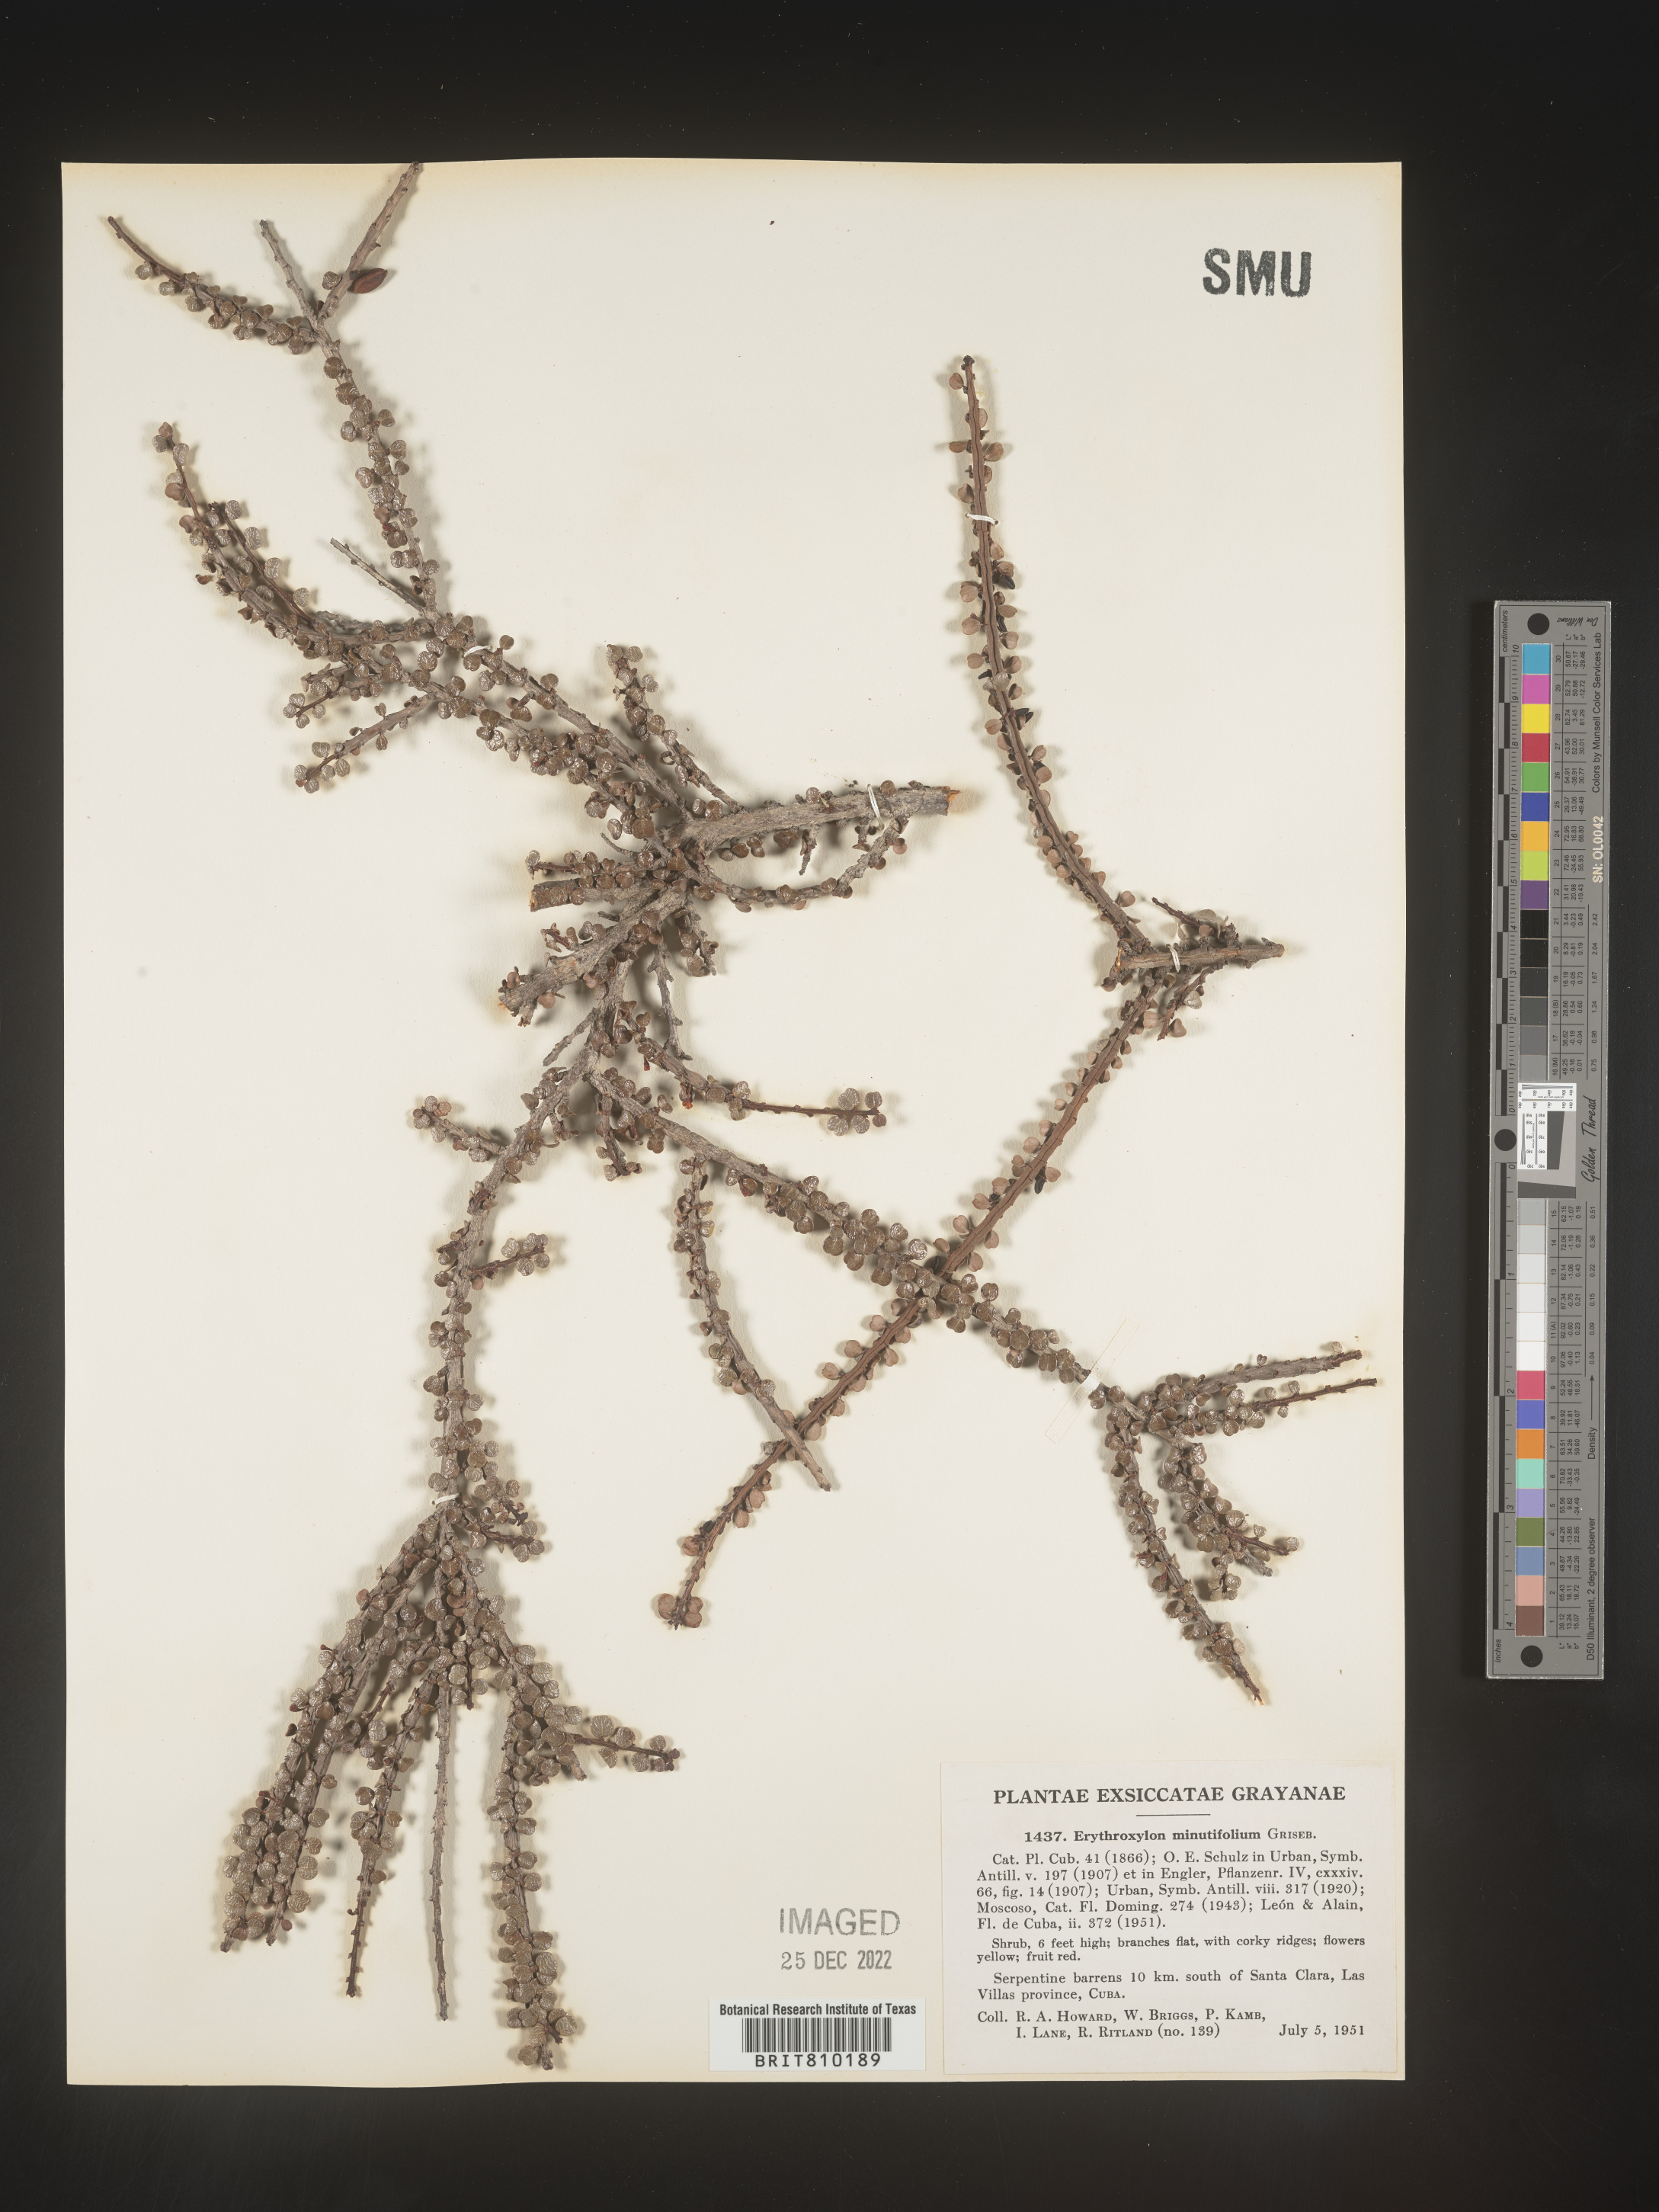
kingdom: Plantae
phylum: Tracheophyta
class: Magnoliopsida
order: Malpighiales
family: Erythroxylaceae
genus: Erythroxylum
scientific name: Erythroxylum
